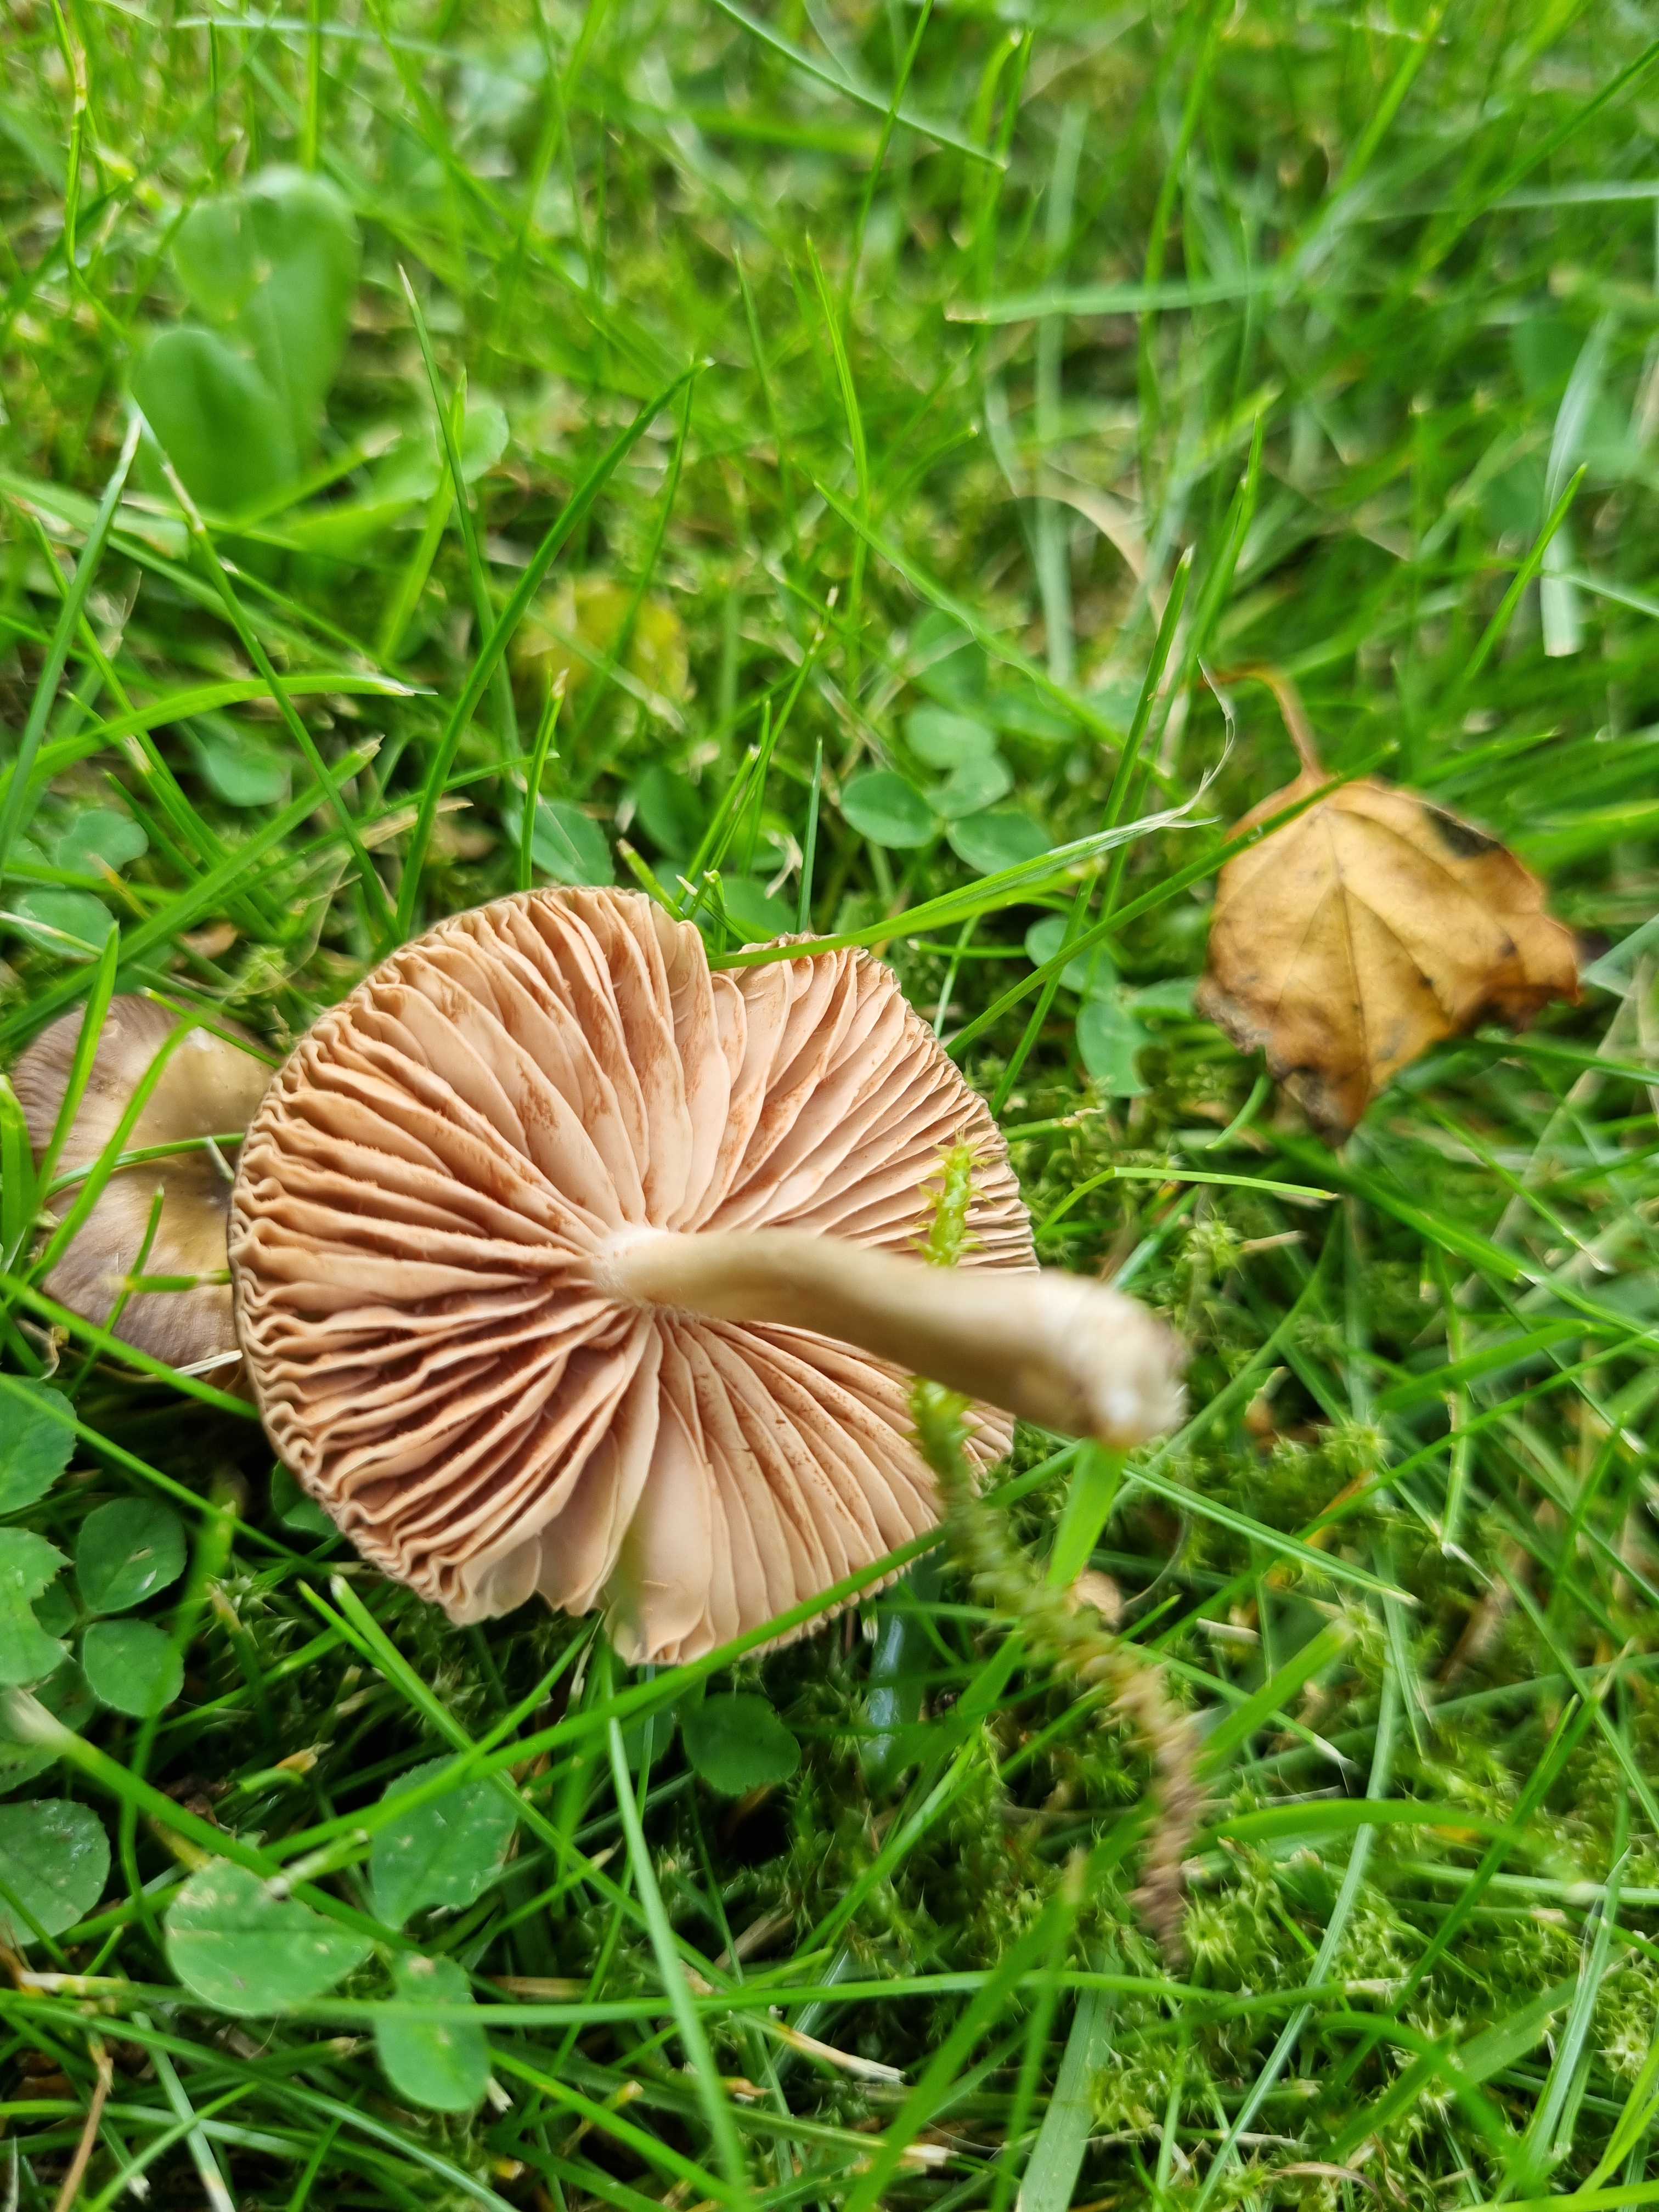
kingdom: Fungi
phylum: Basidiomycota
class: Agaricomycetes
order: Agaricales
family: Entolomataceae
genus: Entoloma
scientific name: Entoloma
